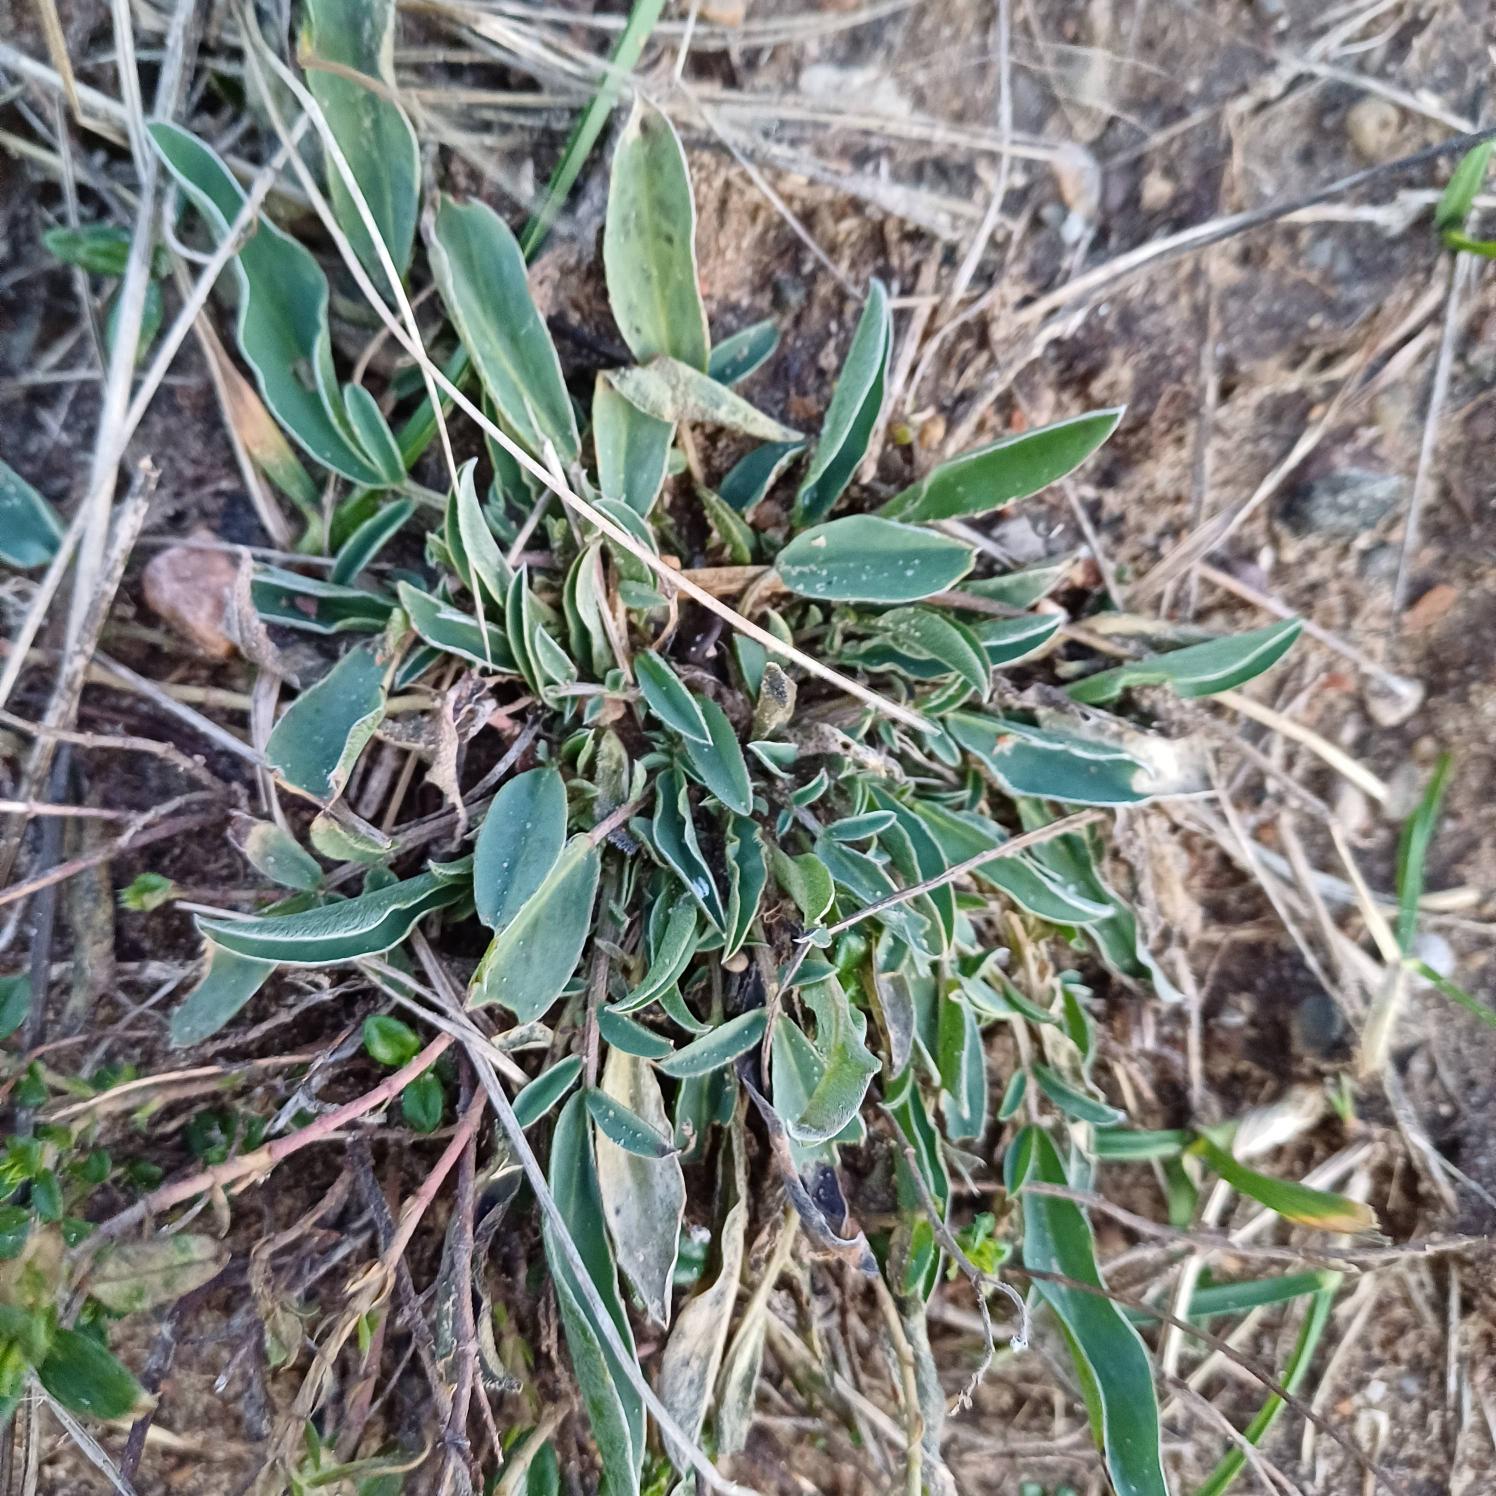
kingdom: Plantae
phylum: Tracheophyta
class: Magnoliopsida
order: Fabales
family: Fabaceae
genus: Anthyllis
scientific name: Anthyllis vulneraria
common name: Rundbælg
